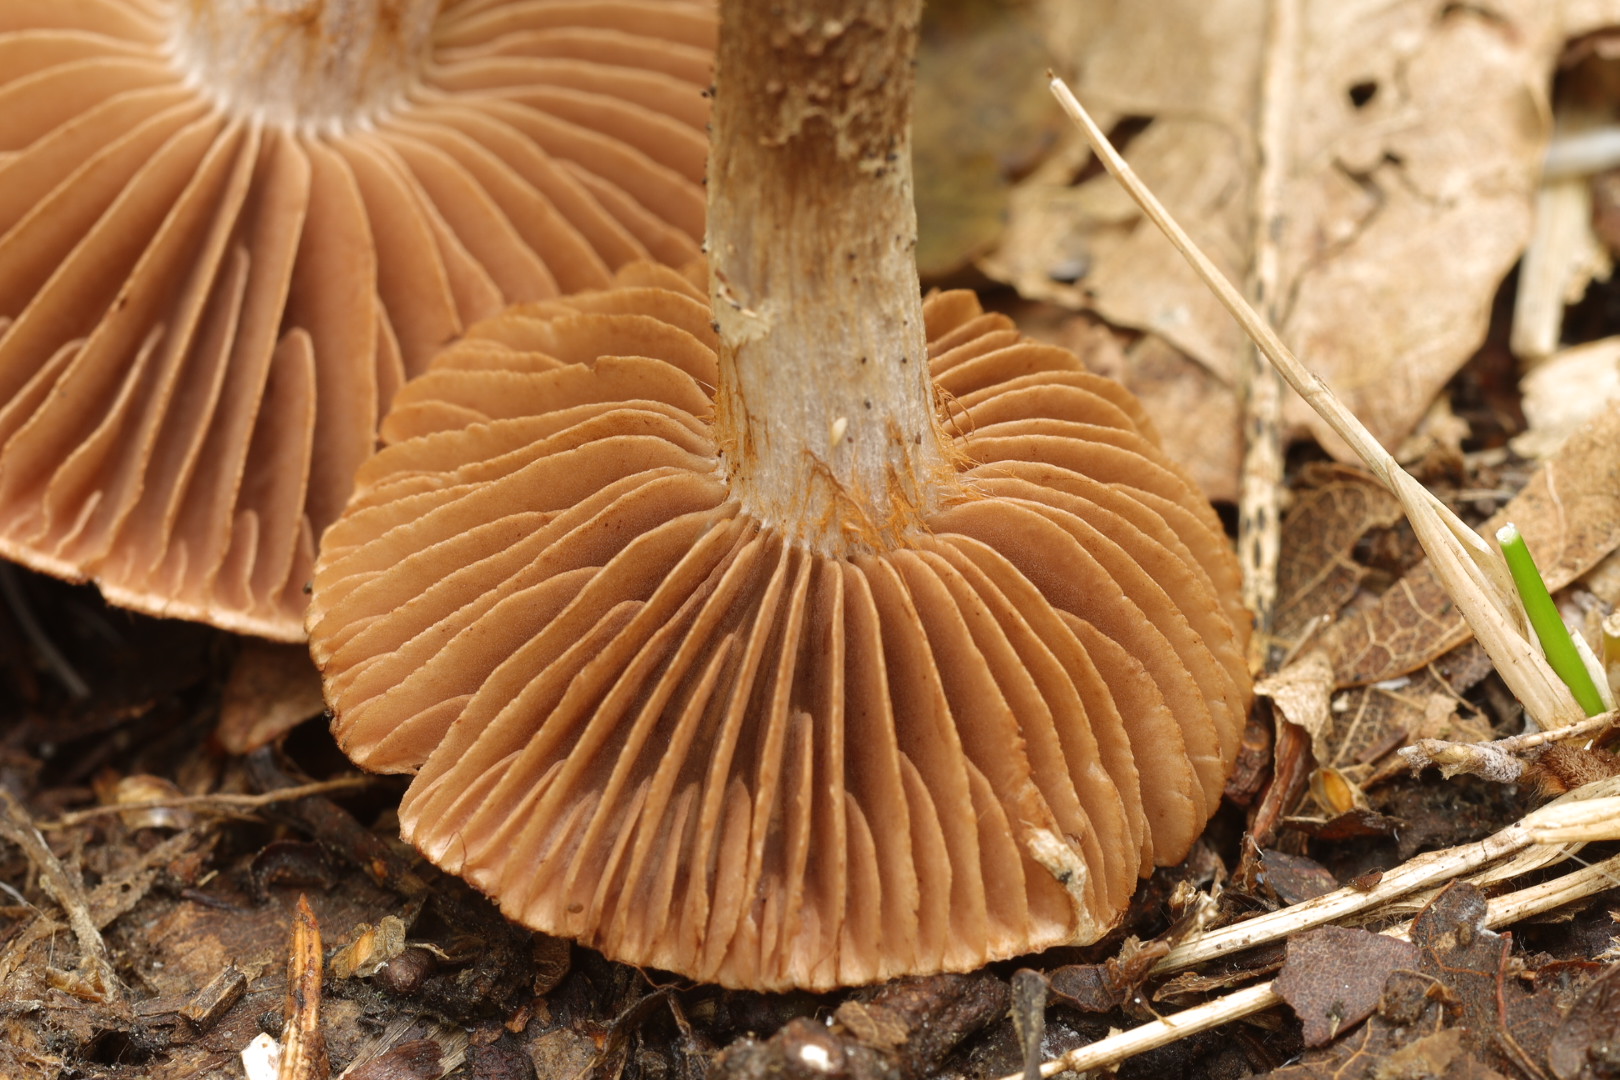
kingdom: Fungi
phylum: Basidiomycota
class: Agaricomycetes
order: Agaricales
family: Cortinariaceae
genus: Cortinarius
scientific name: Cortinarius torvus
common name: champignonagtig slørhat
